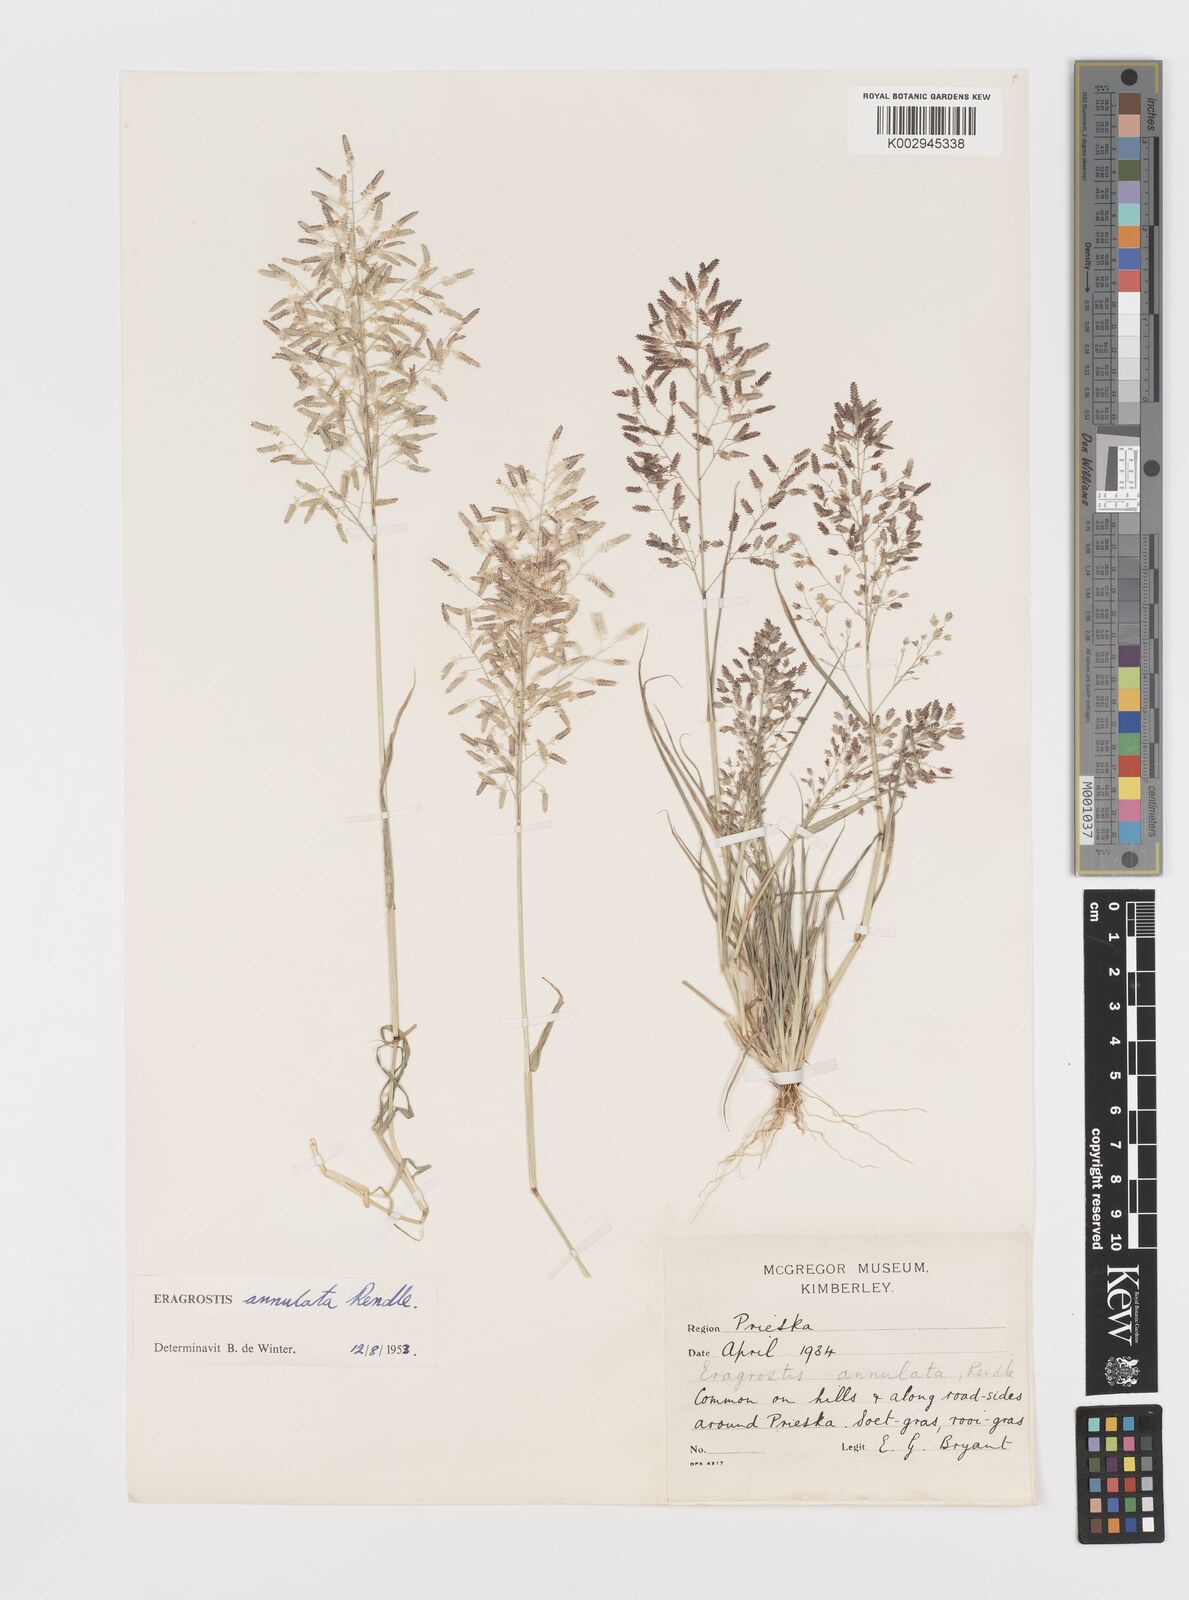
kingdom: Plantae
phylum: Tracheophyta
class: Liliopsida
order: Poales
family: Poaceae
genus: Eragrostis
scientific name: Eragrostis annulata
